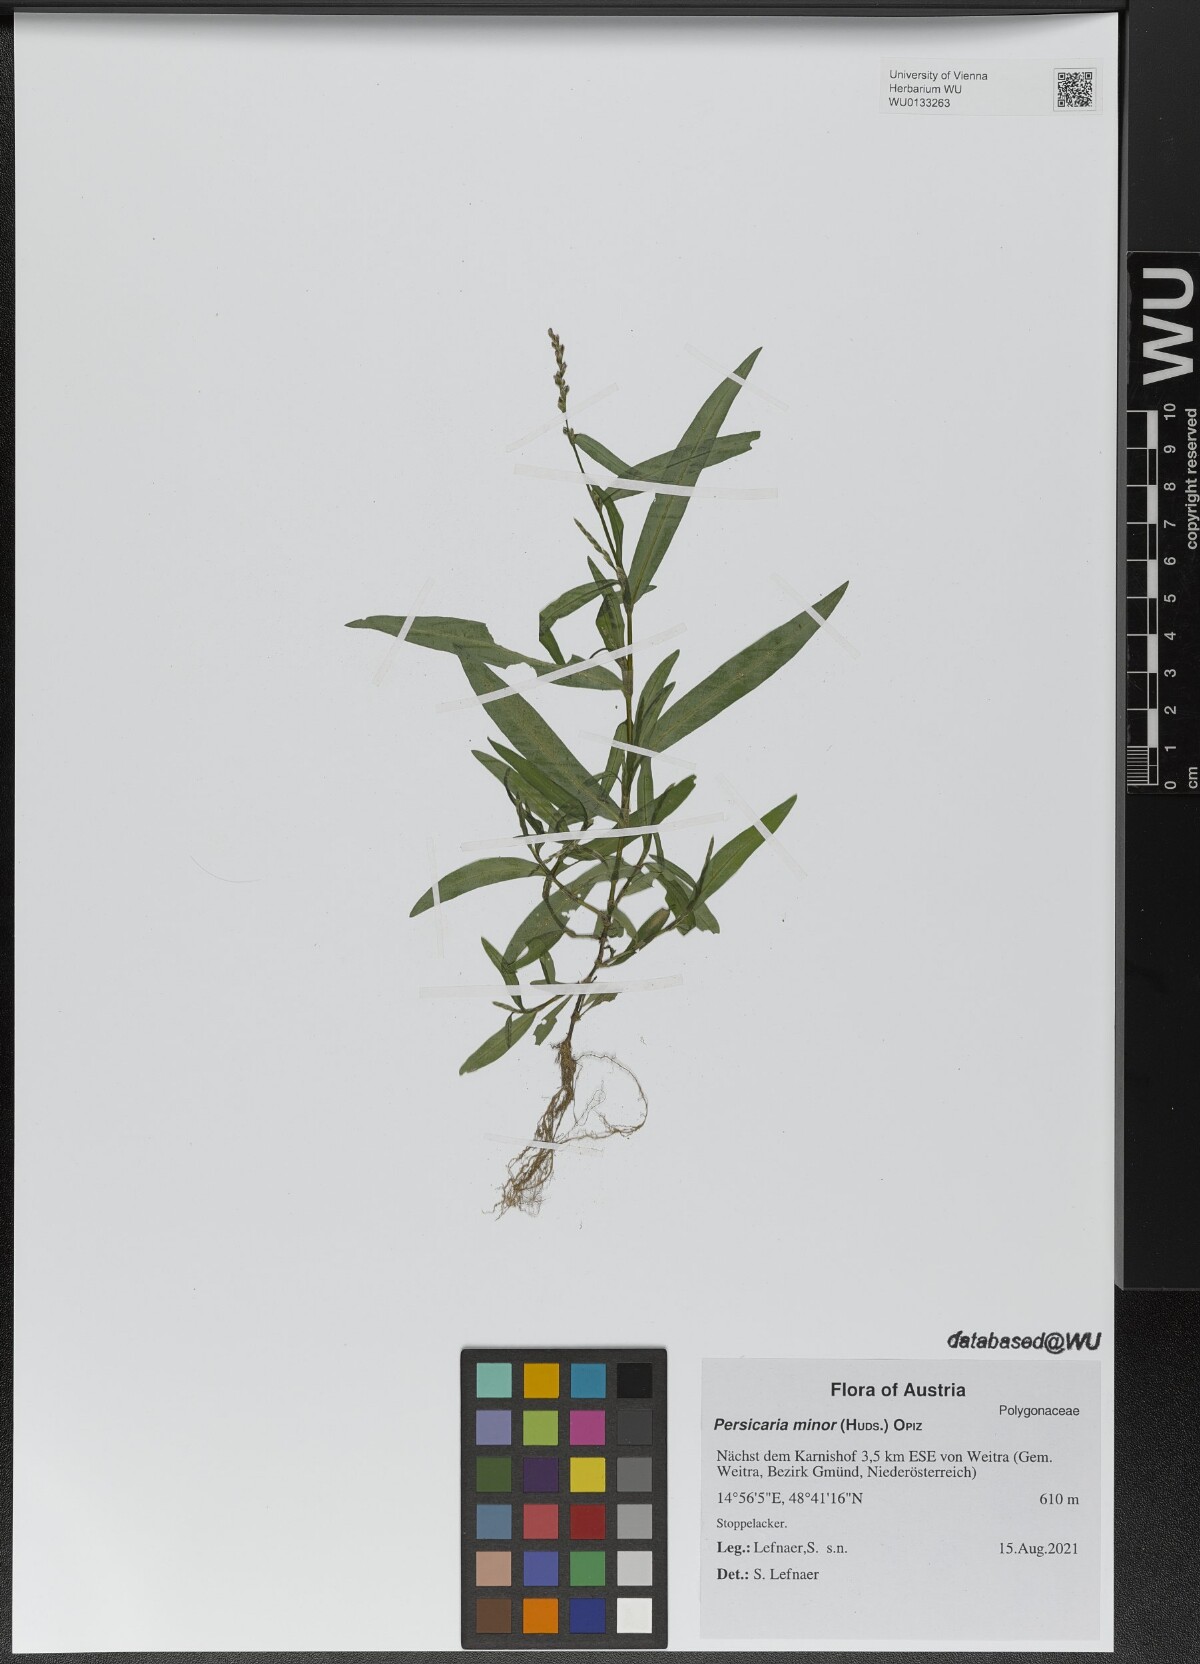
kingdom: Plantae
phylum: Tracheophyta
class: Magnoliopsida
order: Caryophyllales
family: Polygonaceae
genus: Persicaria
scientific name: Persicaria minor
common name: Small water-pepper
